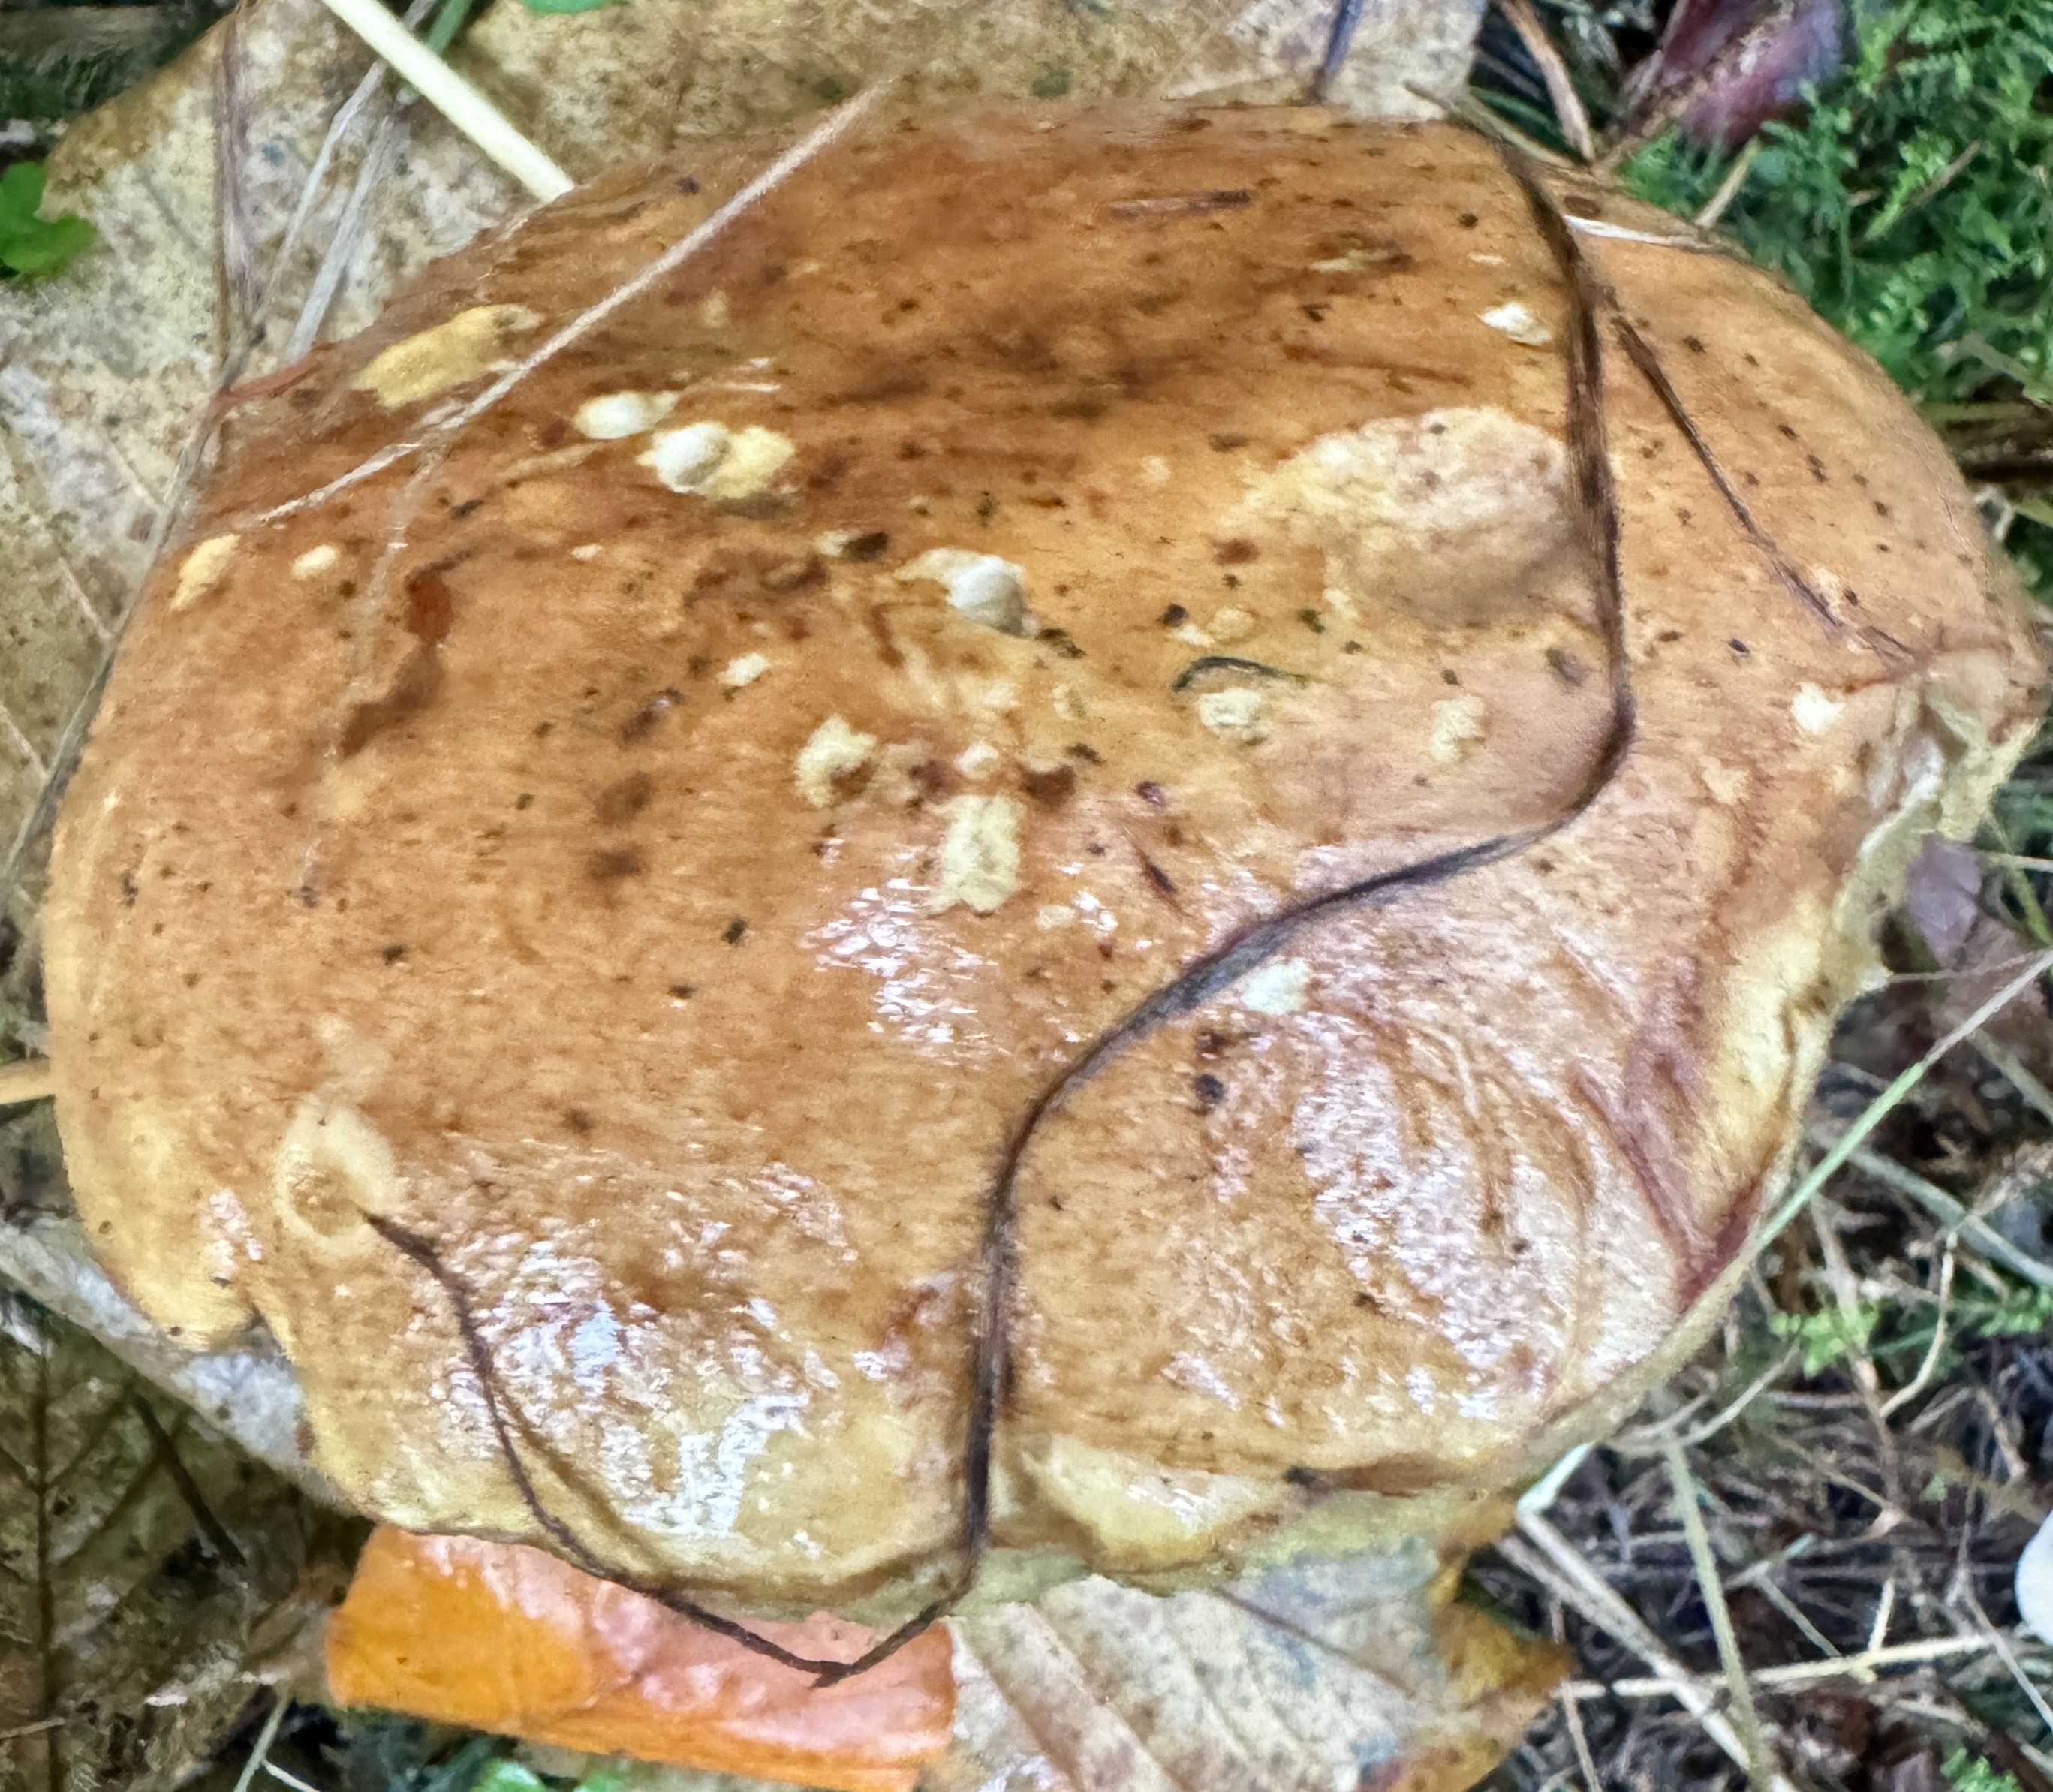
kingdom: Fungi
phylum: Basidiomycota
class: Agaricomycetes
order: Boletales
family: Boletaceae
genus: Imleria
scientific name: Imleria badia
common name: brunstokket rørhat
